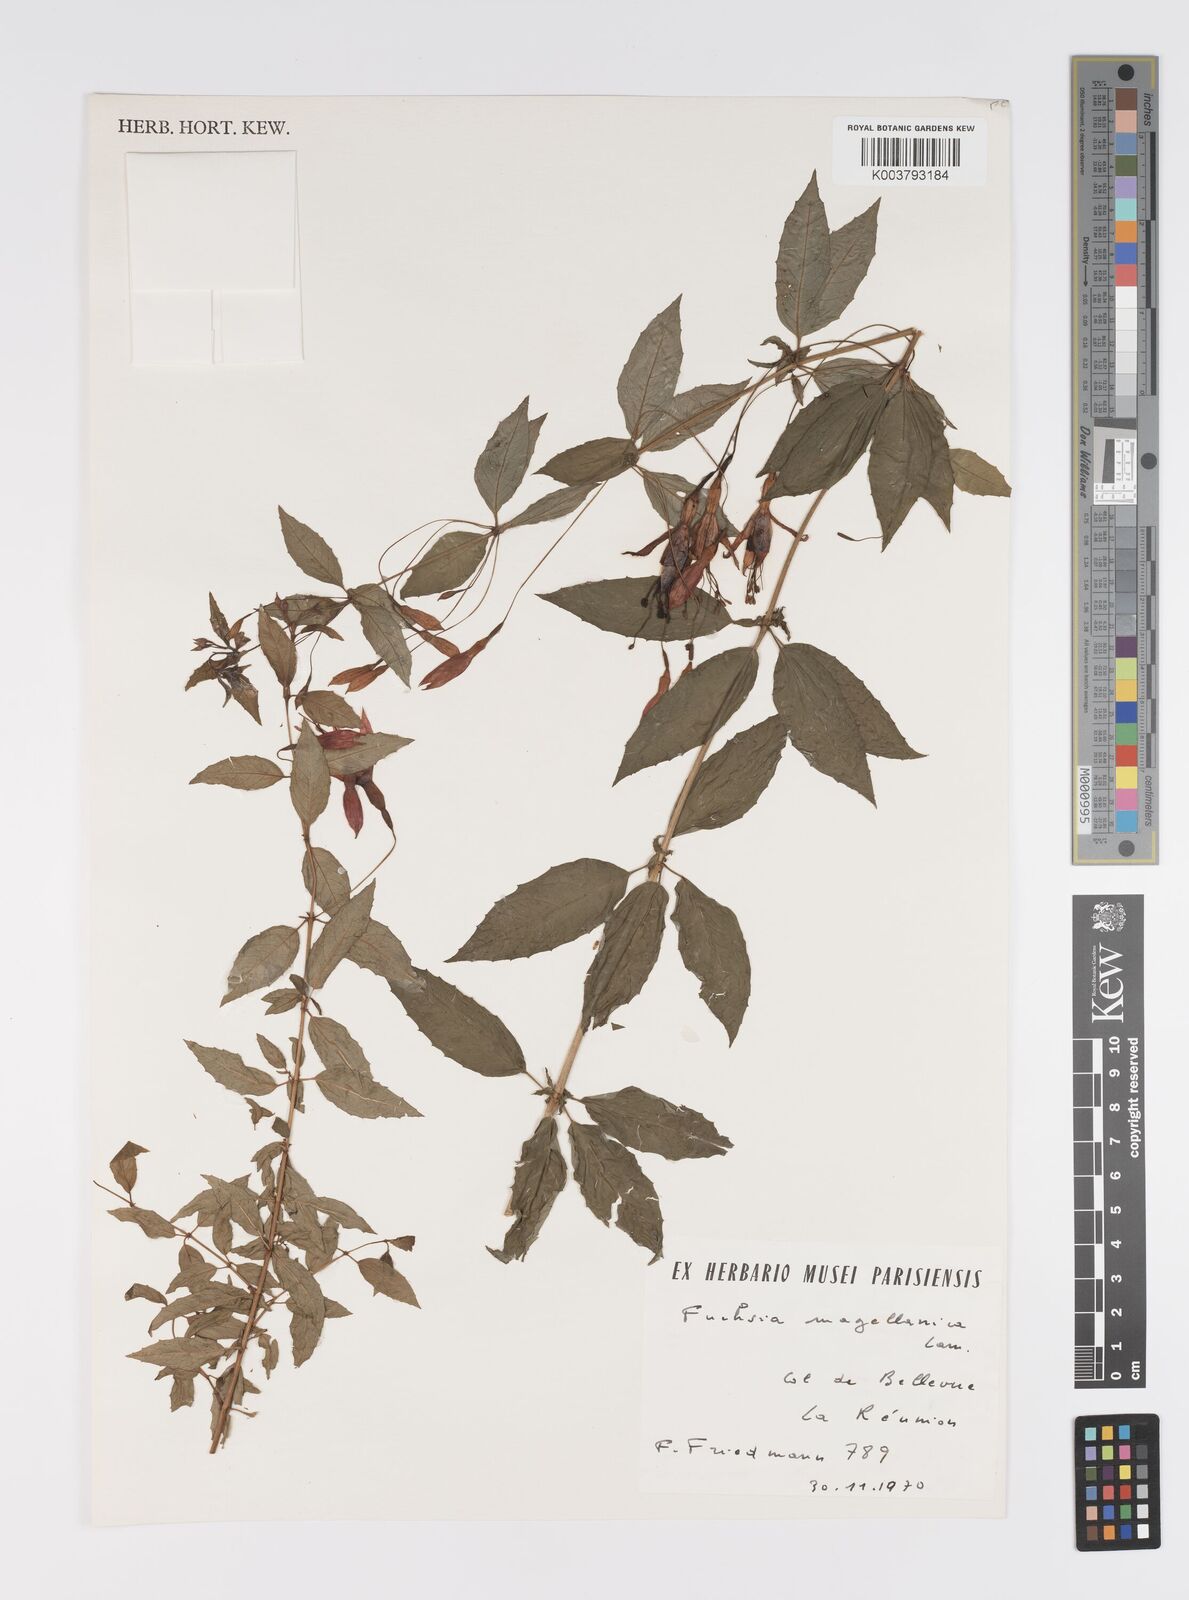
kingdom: Plantae
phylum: Tracheophyta
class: Magnoliopsida
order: Myrtales
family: Onagraceae
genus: Fuchsia
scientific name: Fuchsia
